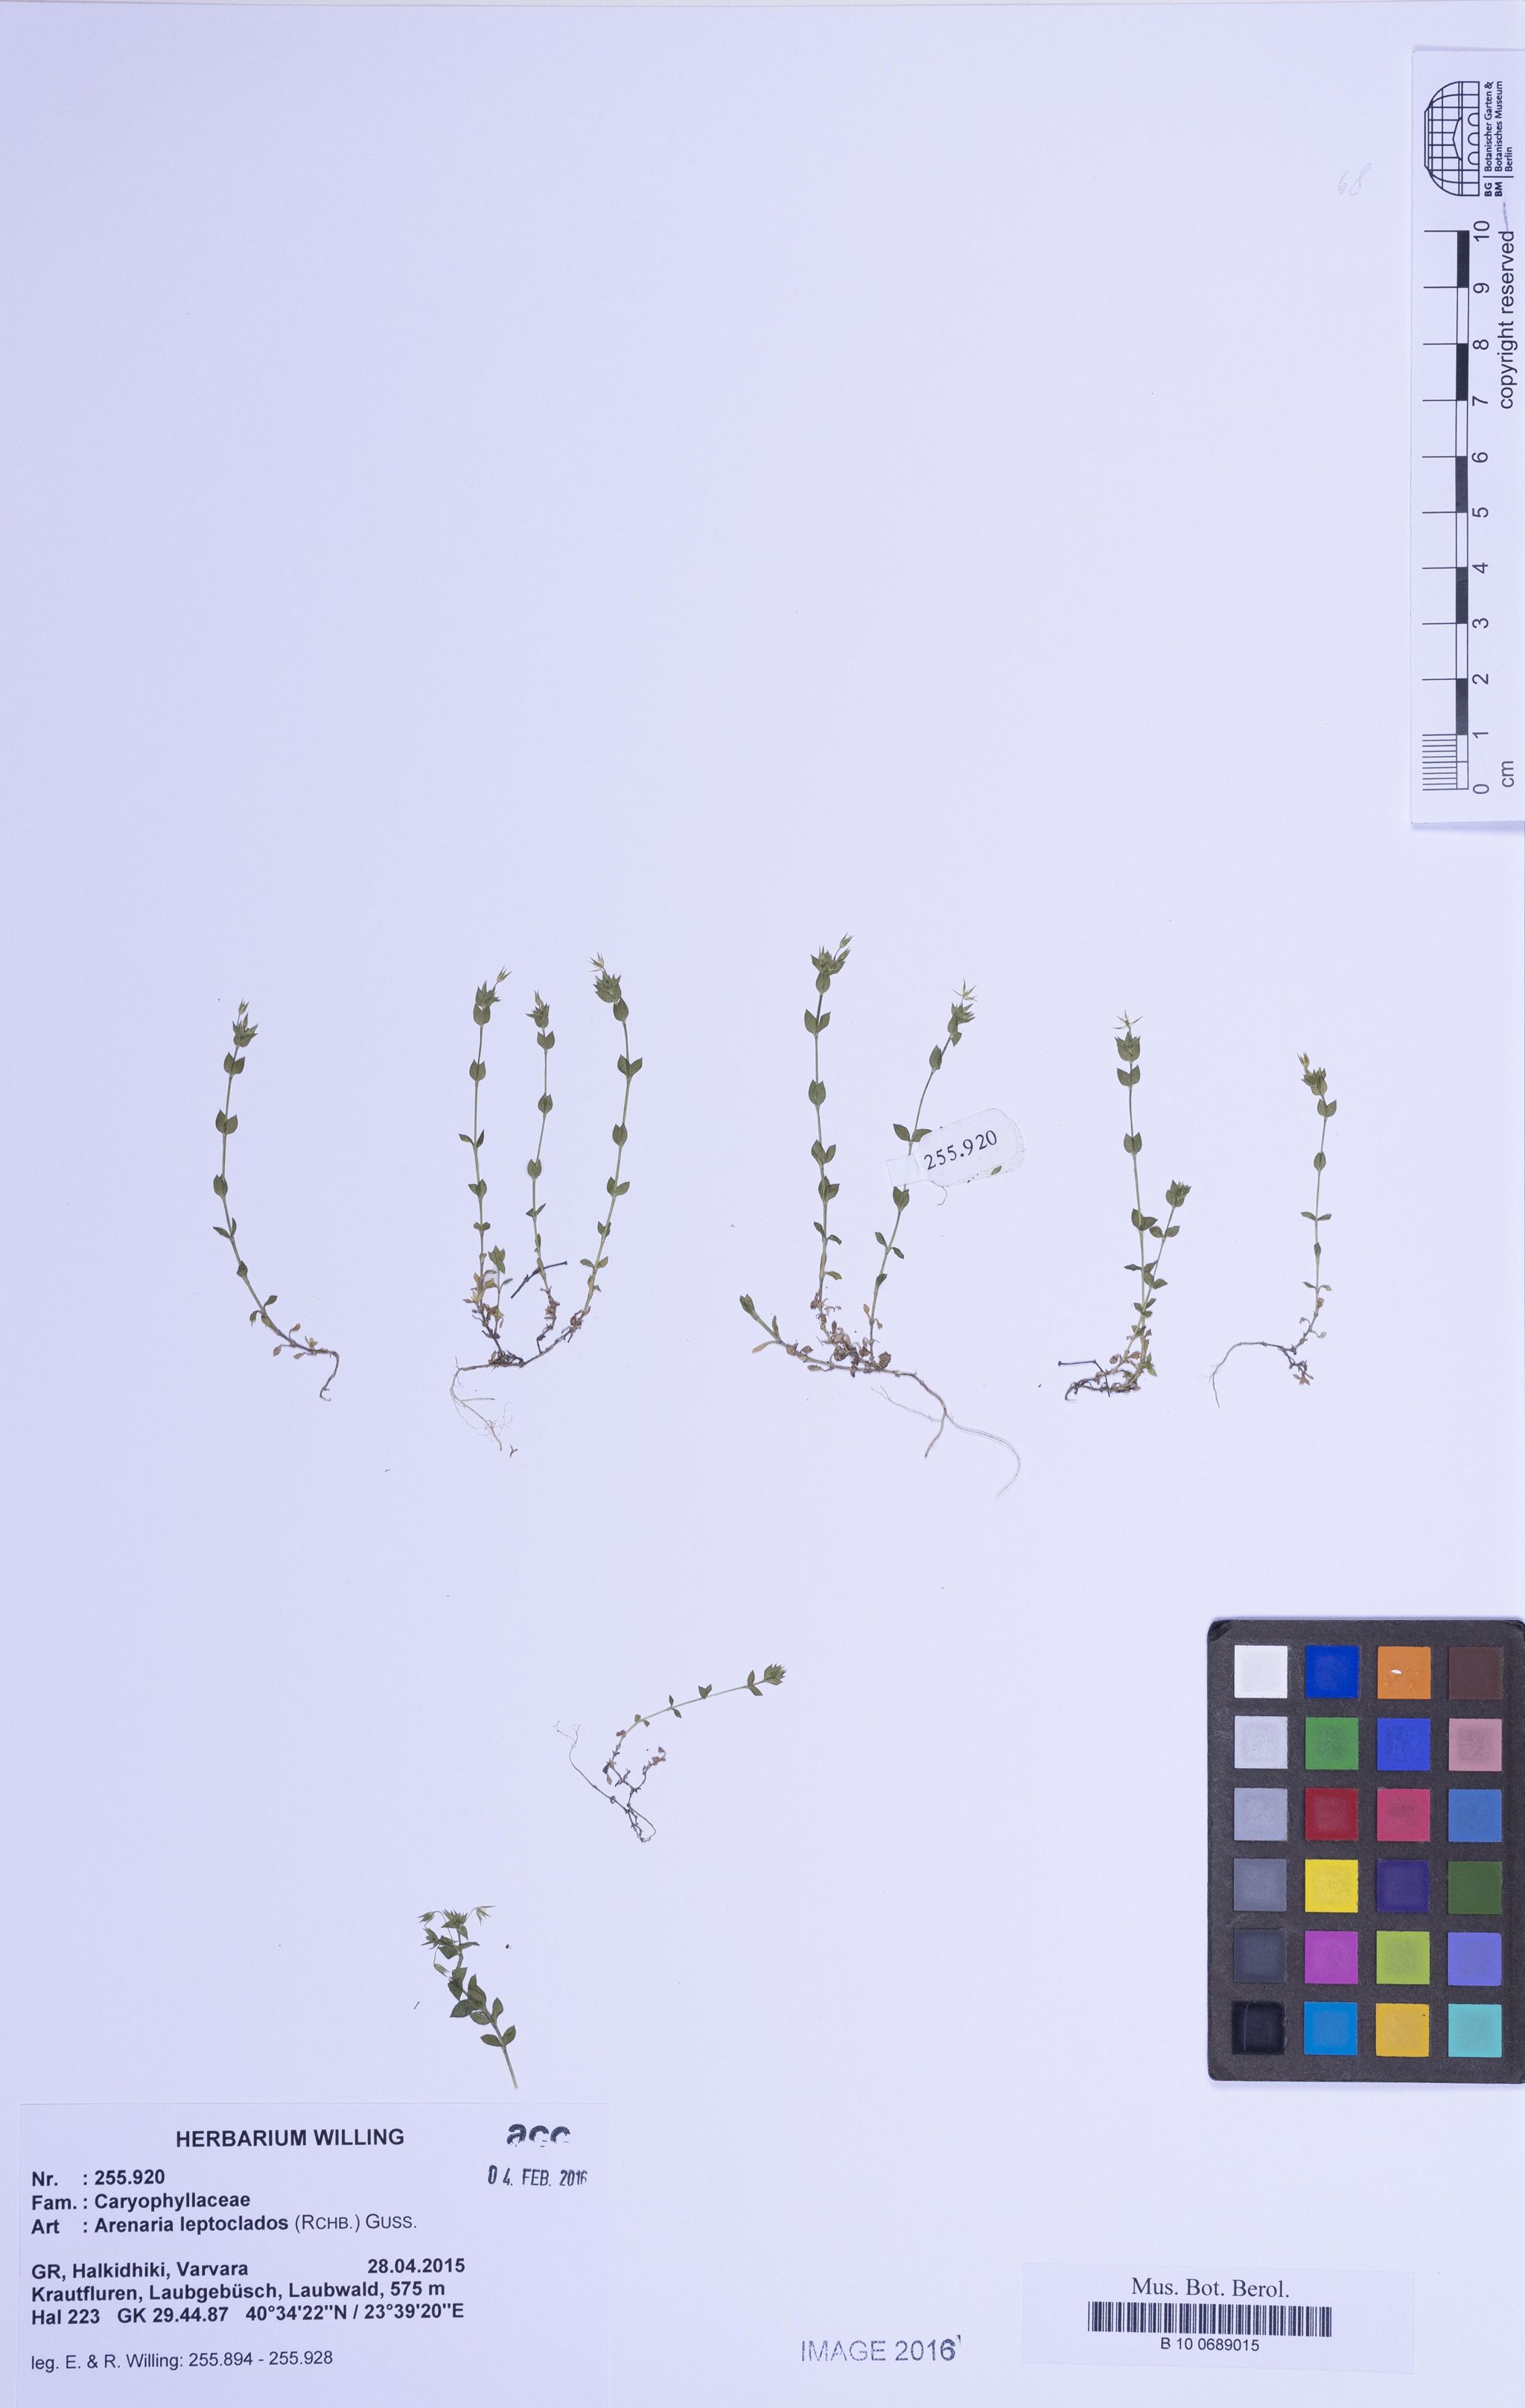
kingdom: Plantae
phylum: Tracheophyta
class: Magnoliopsida
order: Caryophyllales
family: Caryophyllaceae
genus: Arenaria
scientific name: Arenaria leptoclados
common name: Thyme-leaved sandwort
